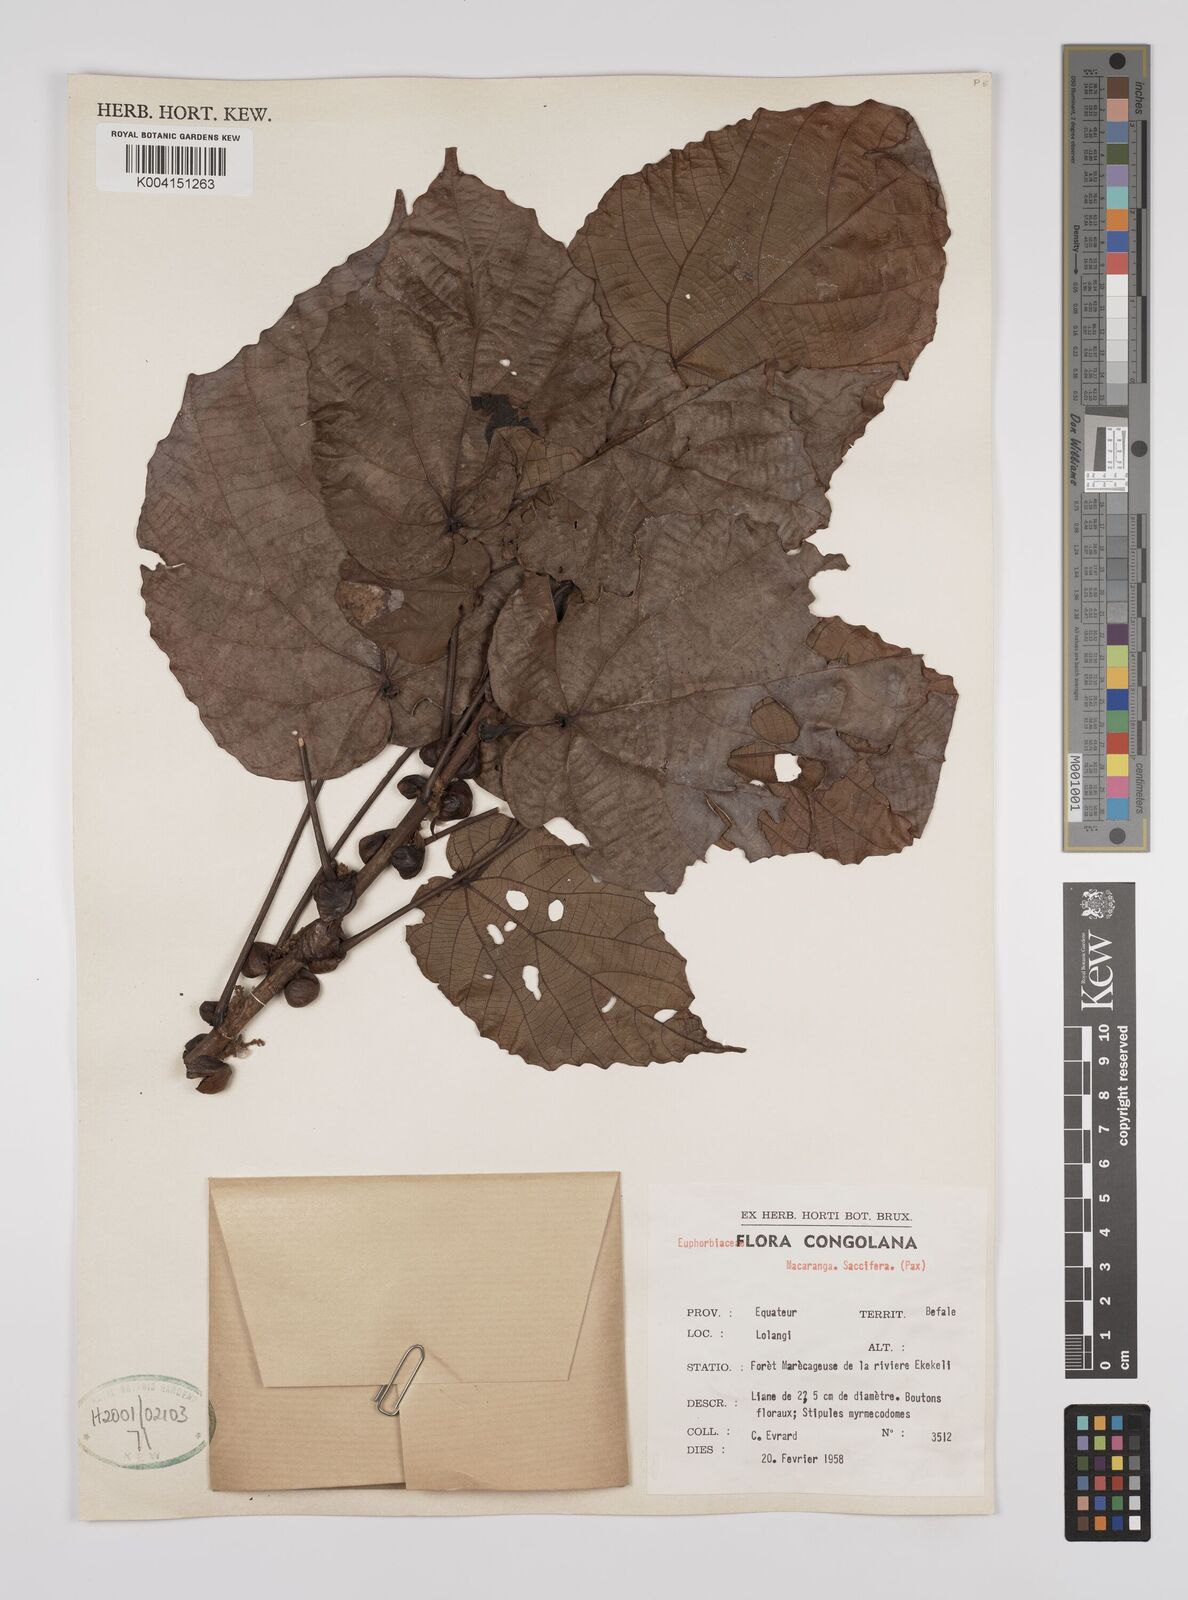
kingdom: Plantae
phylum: Tracheophyta
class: Magnoliopsida
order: Malpighiales
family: Euphorbiaceae
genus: Macaranga
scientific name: Macaranga saccifera
